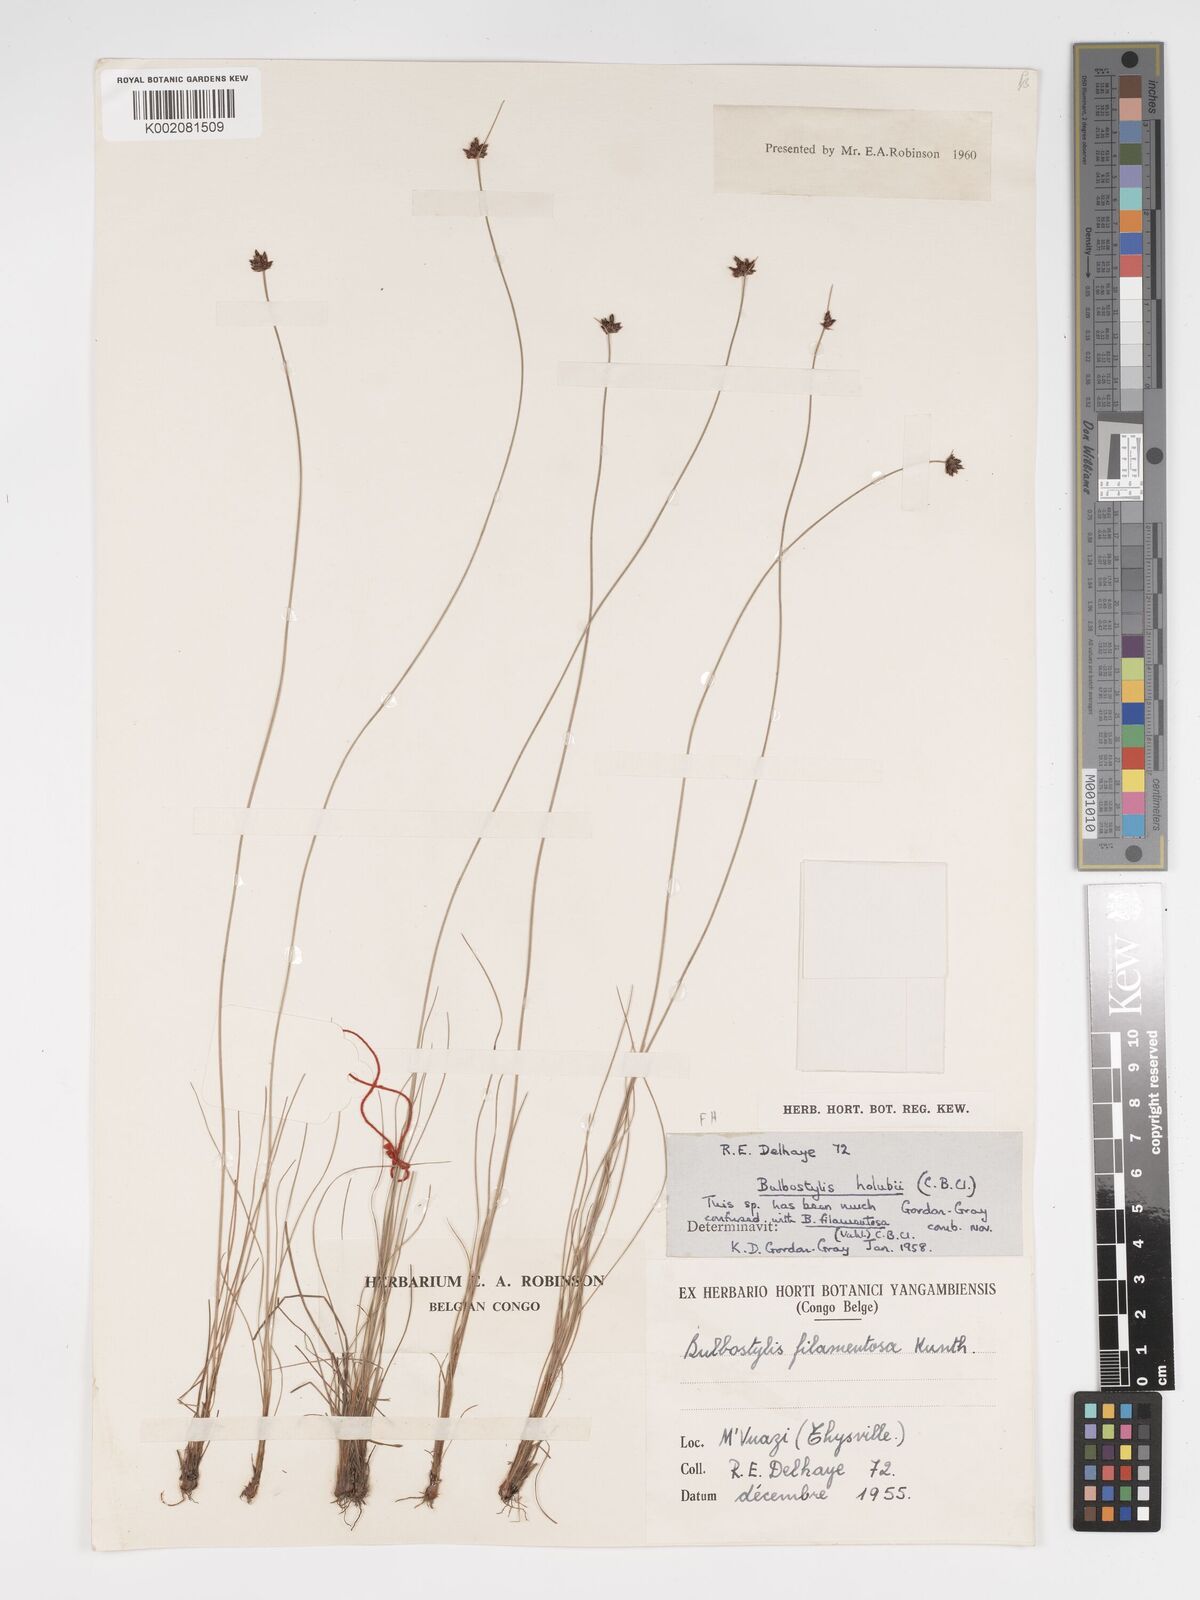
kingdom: Plantae
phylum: Tracheophyta
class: Liliopsida
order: Poales
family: Cyperaceae
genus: Bulbostylis
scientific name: Bulbostylis scabricaulis
